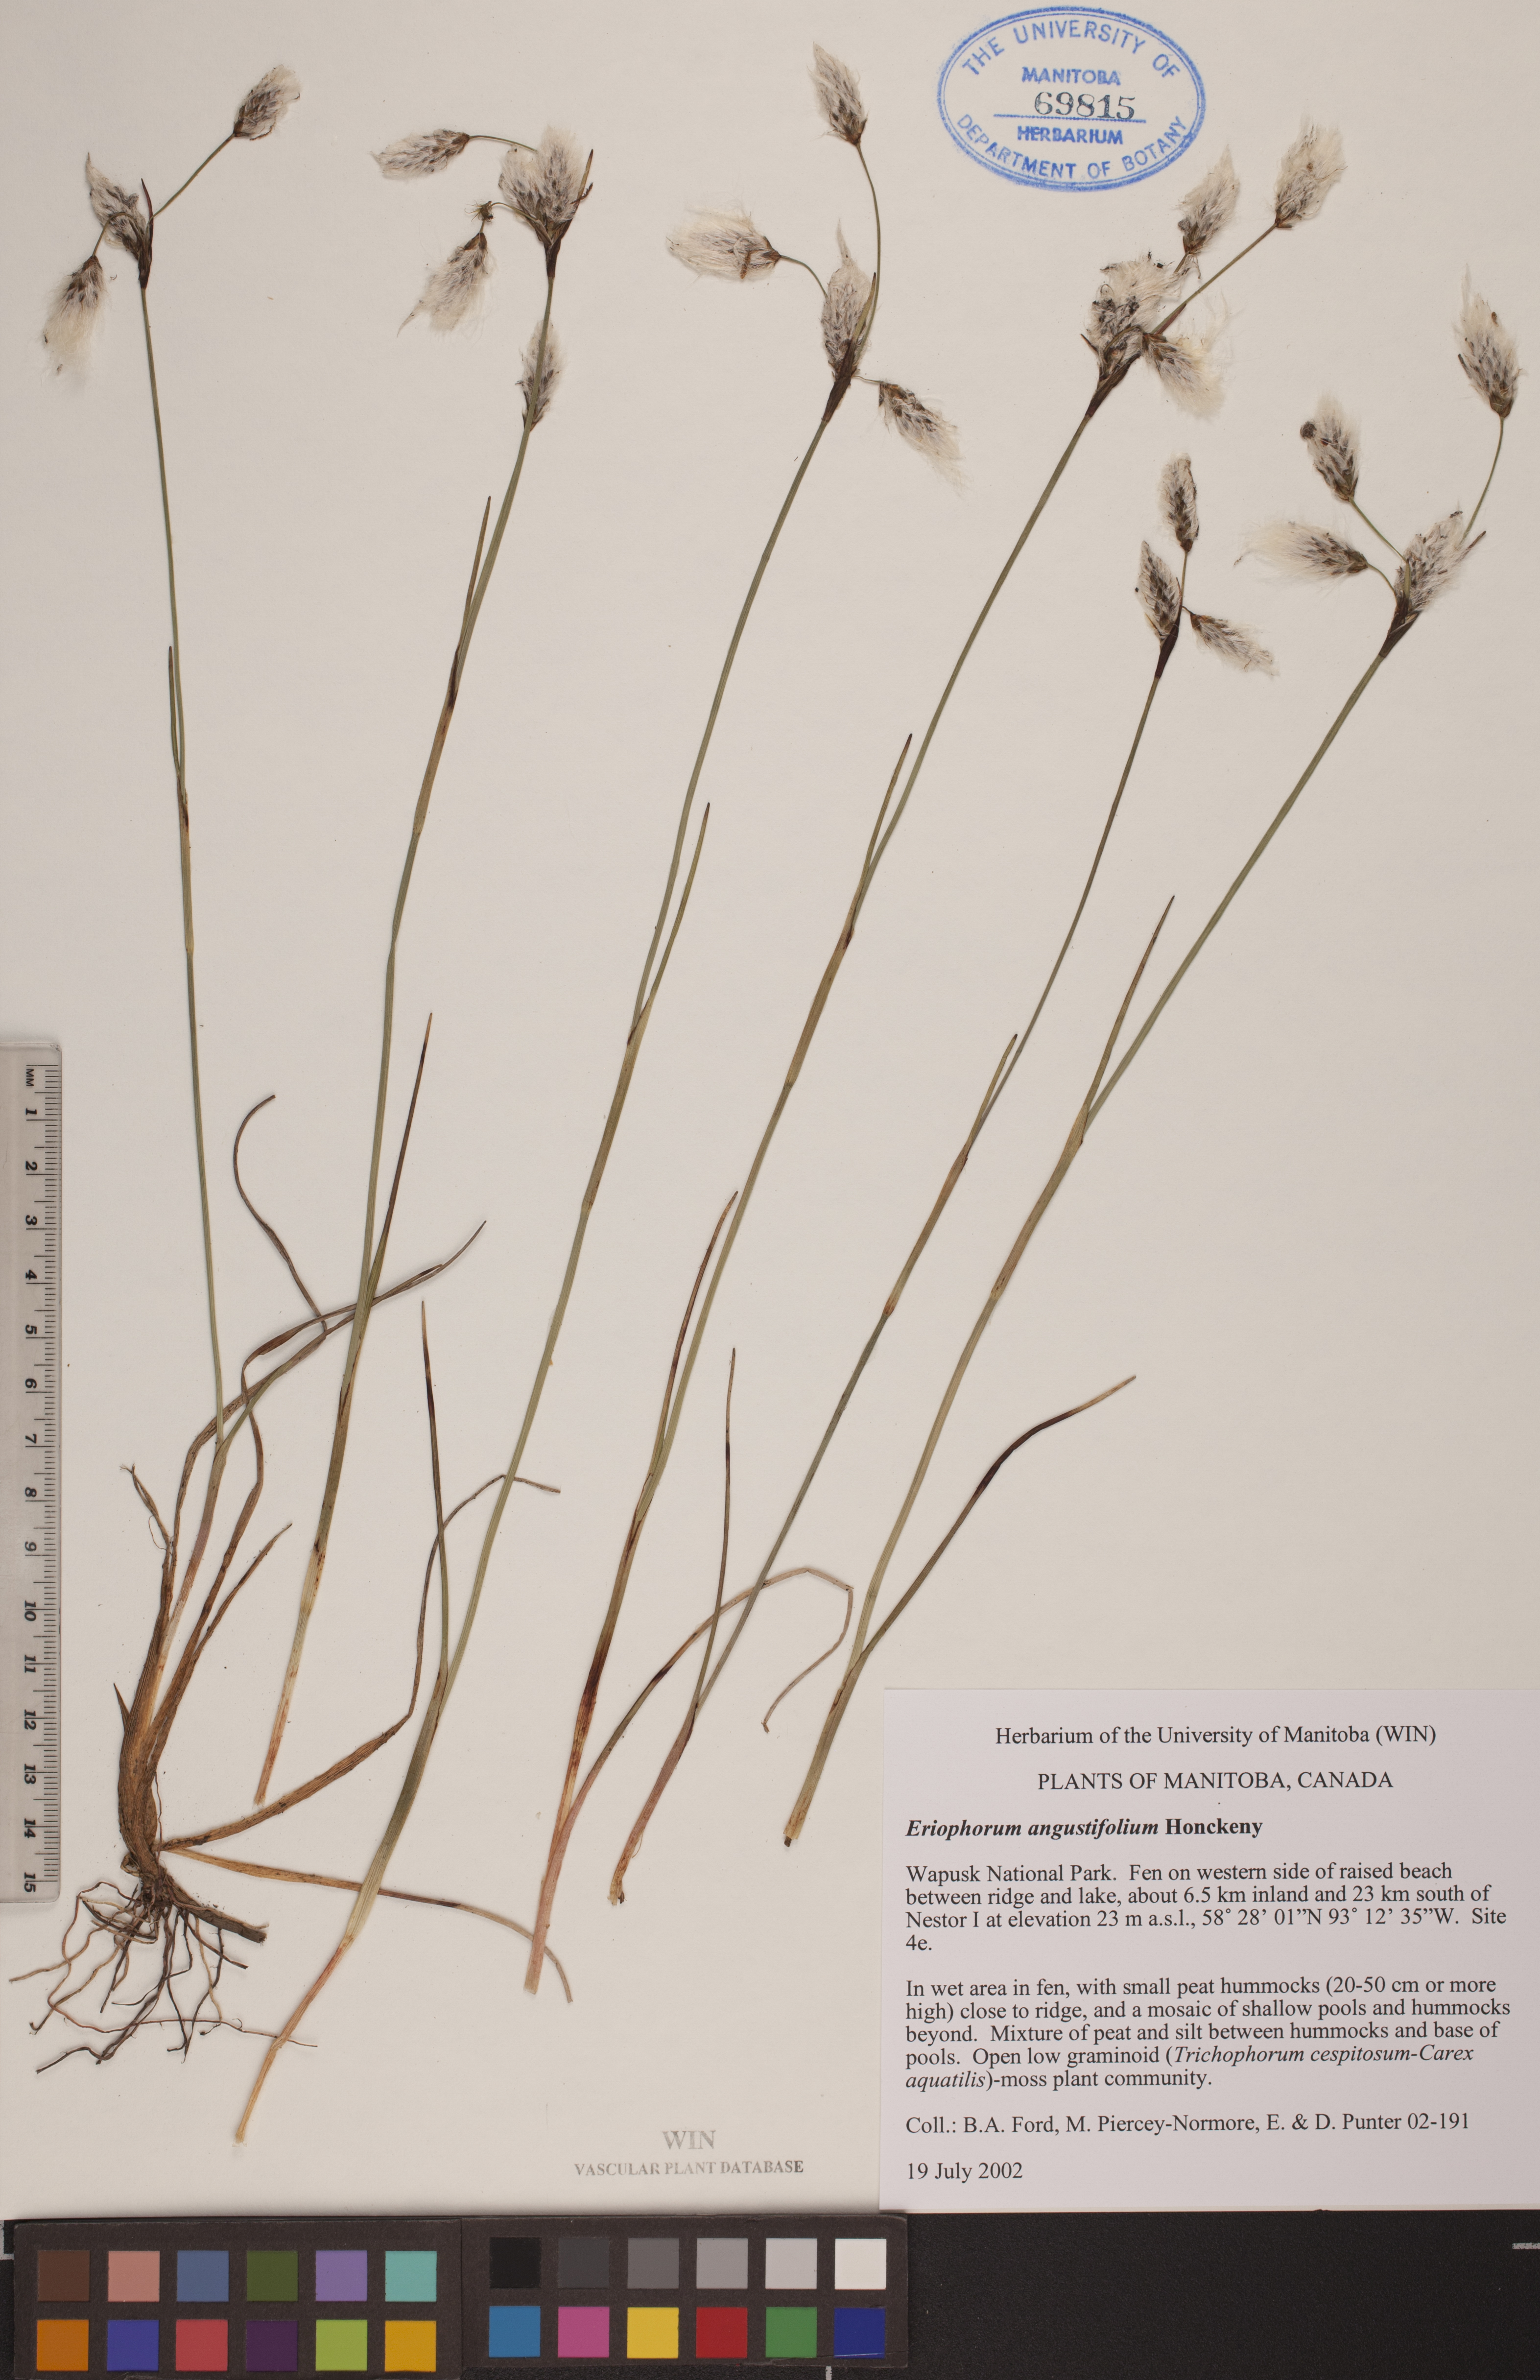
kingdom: Plantae
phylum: Tracheophyta
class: Liliopsida
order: Poales
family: Cyperaceae
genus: Eriophorum
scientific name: Eriophorum angustifolium
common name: Common cottongrass
